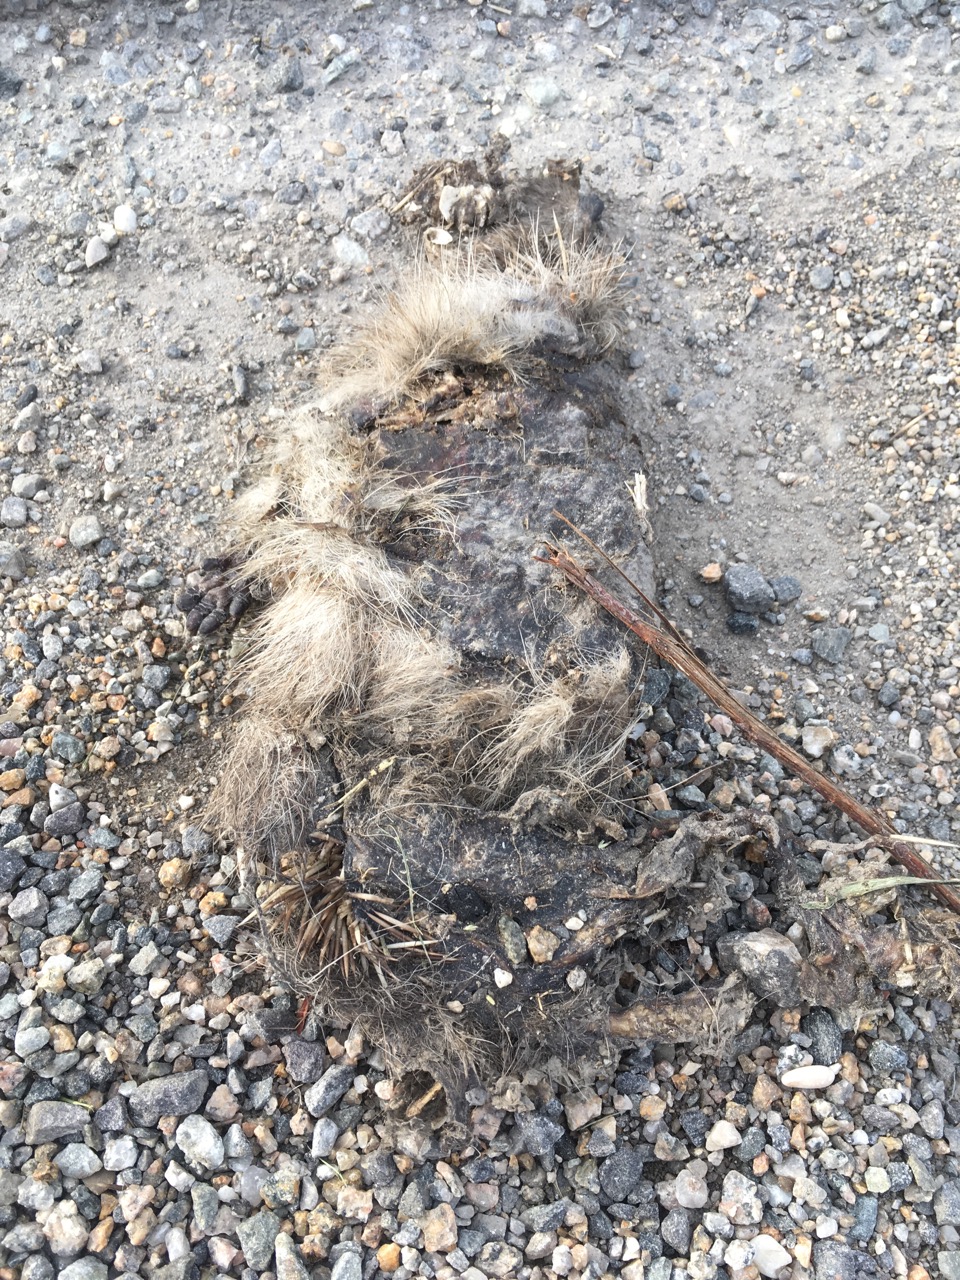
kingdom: Animalia
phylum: Chordata
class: Mammalia
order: Erinaceomorpha
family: Erinaceidae
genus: Erinaceus
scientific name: Erinaceus
